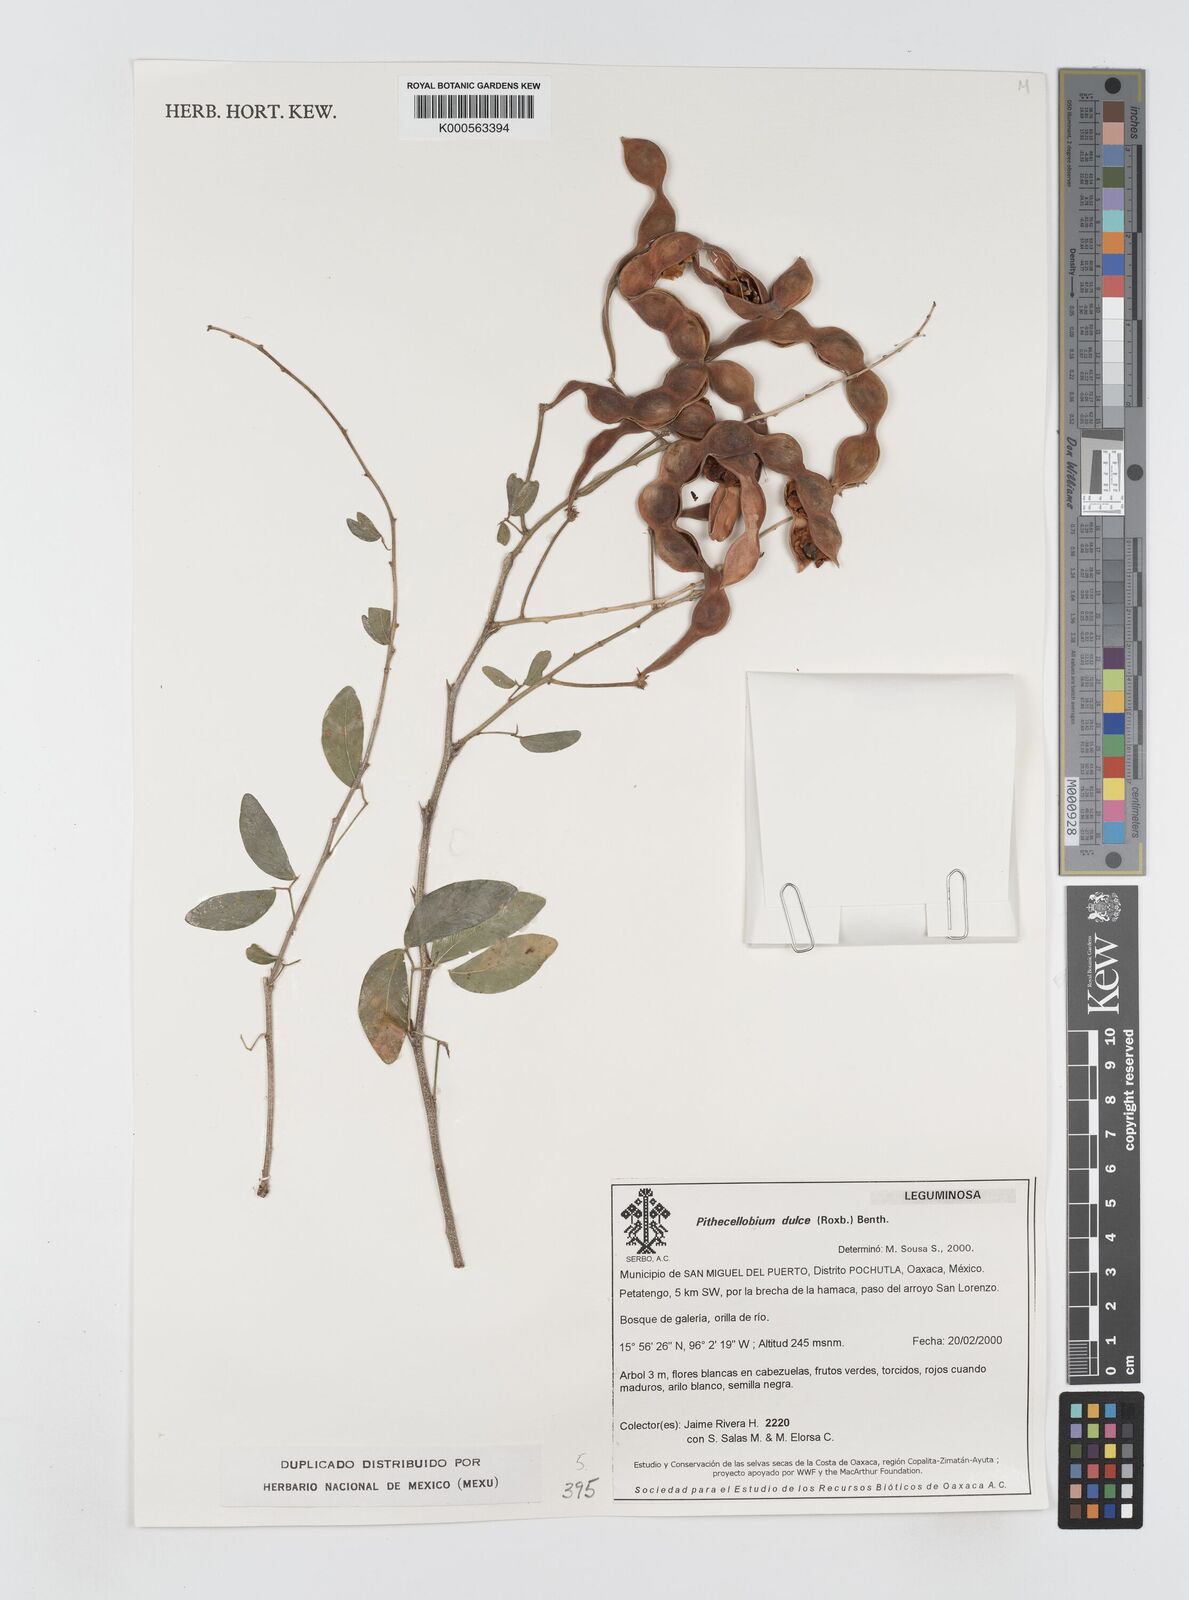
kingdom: Plantae
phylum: Tracheophyta
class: Magnoliopsida
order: Fabales
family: Fabaceae
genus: Pithecellobium
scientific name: Pithecellobium dulce
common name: Monkeypod
